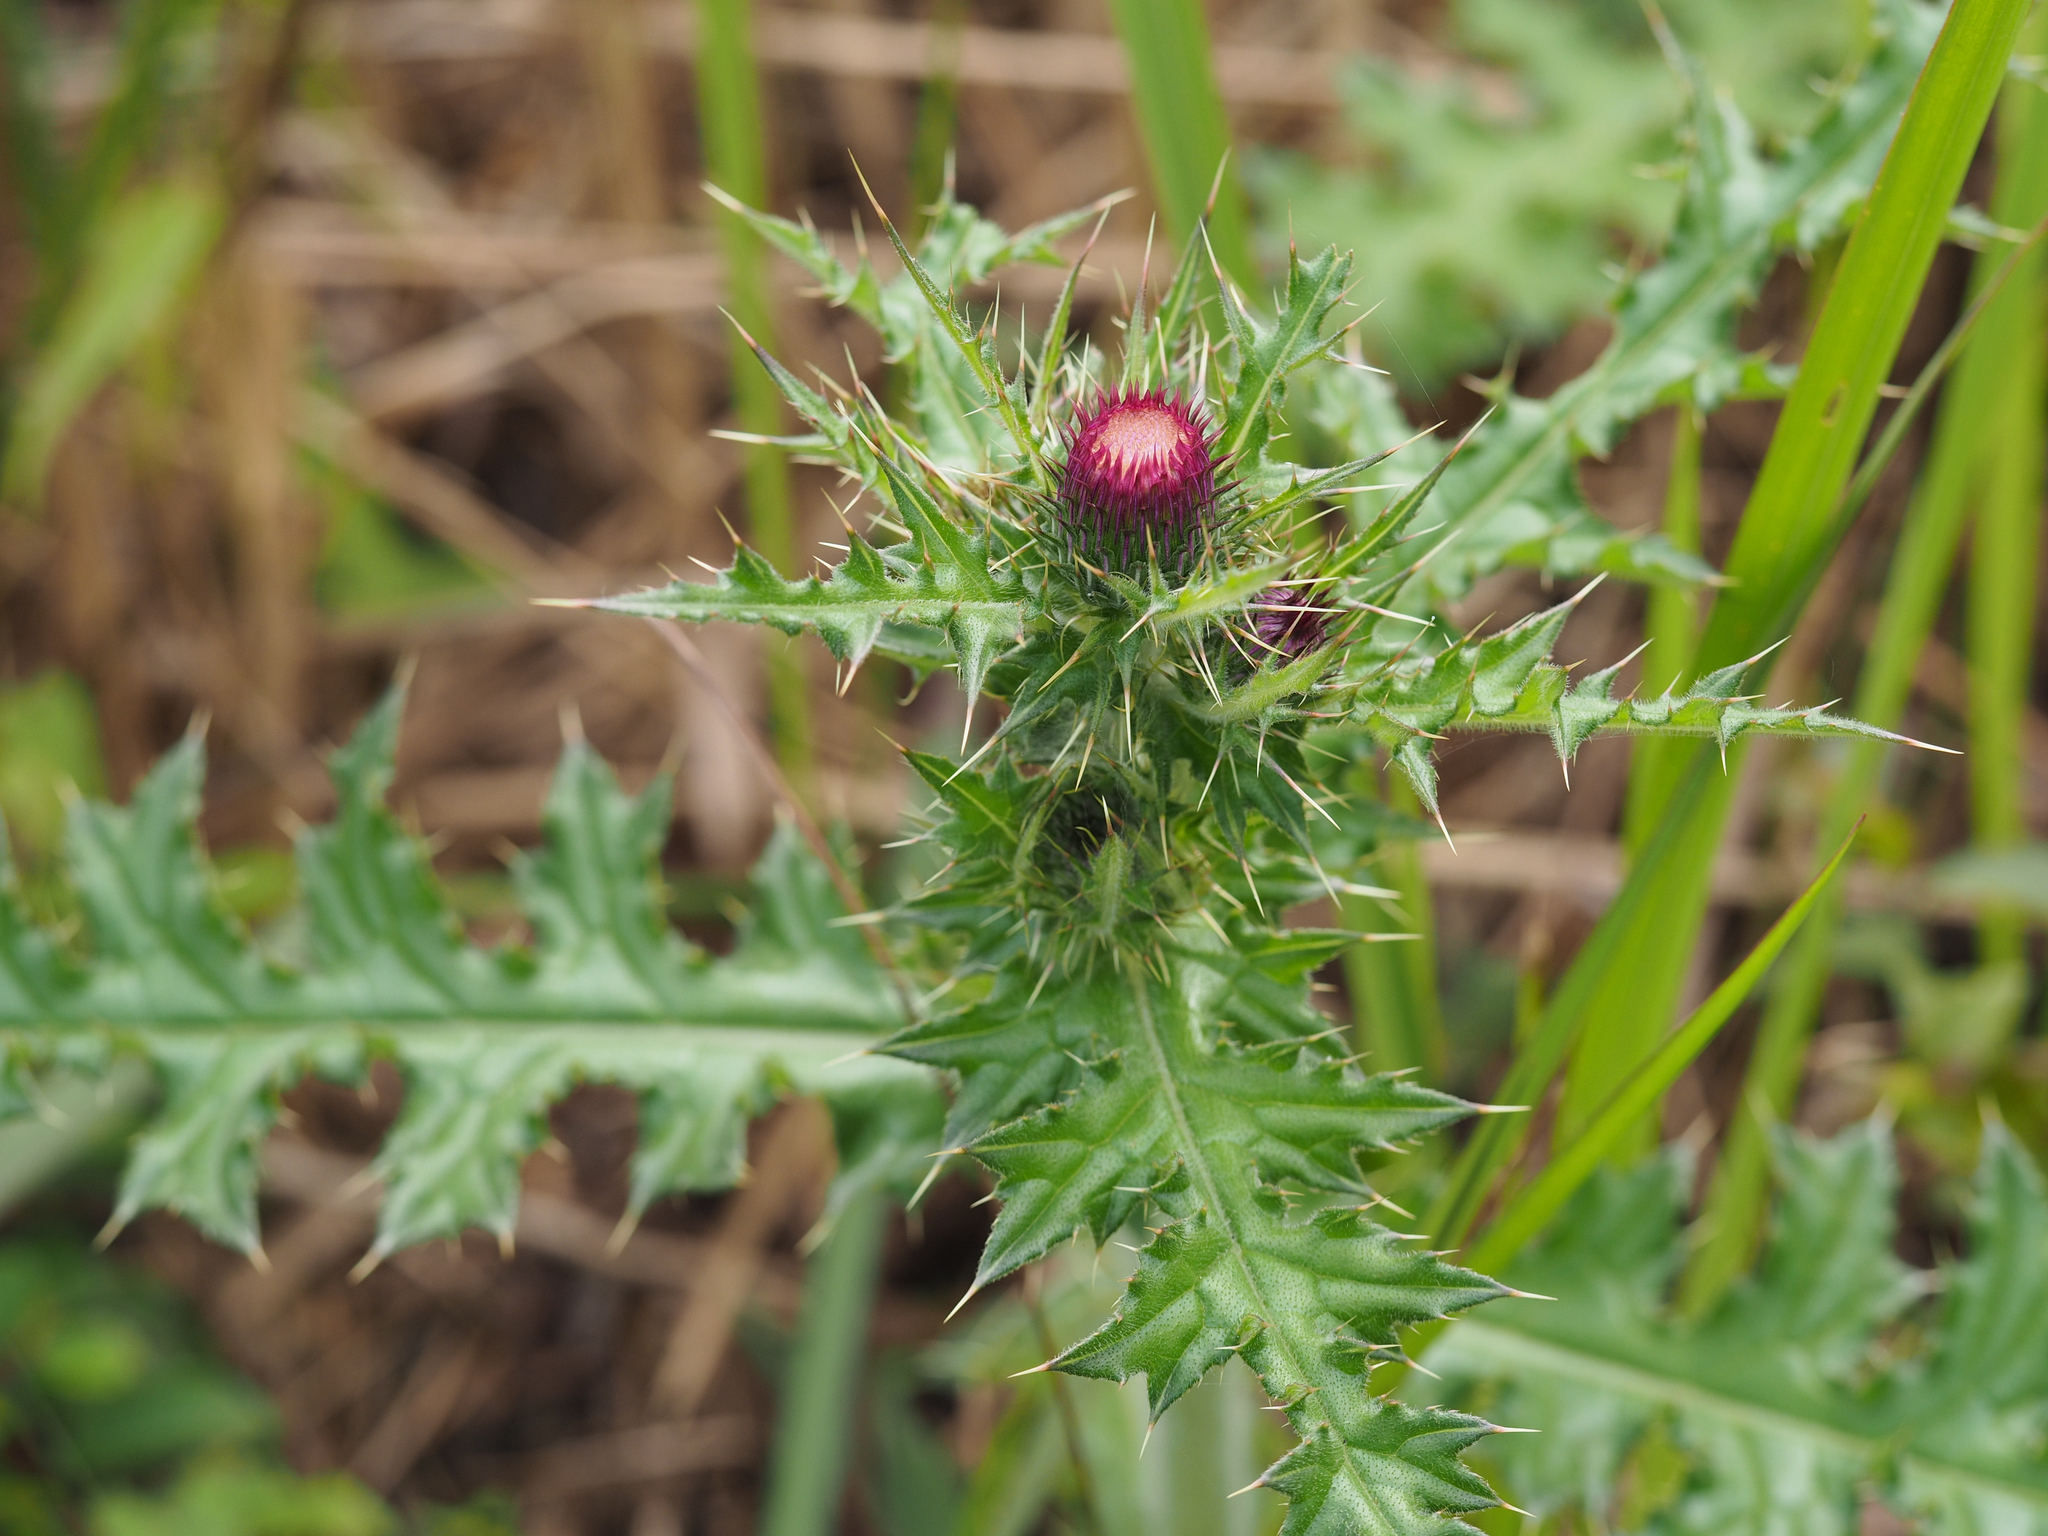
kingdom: Plantae
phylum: Tracheophyta
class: Magnoliopsida
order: Asterales
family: Asteraceae
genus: Cirsium
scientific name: Cirsium japonicum
